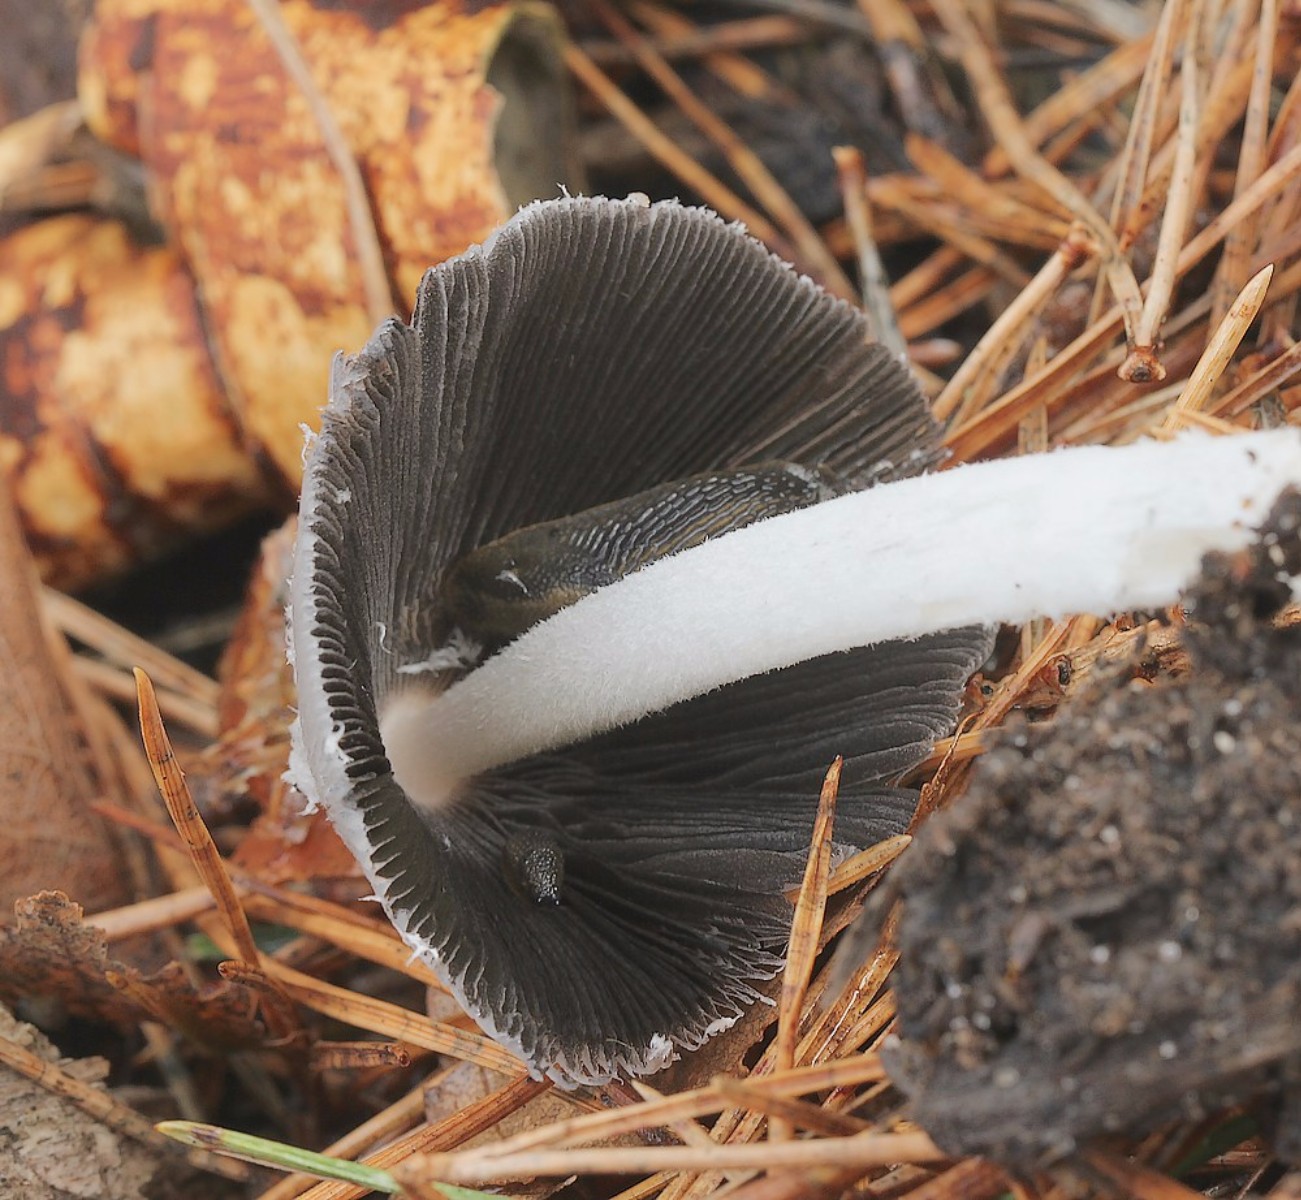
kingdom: Fungi
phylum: Basidiomycota
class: Agaricomycetes
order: Agaricales
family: Psathyrellaceae
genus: Coprinellus
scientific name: Coprinellus
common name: blækhat
